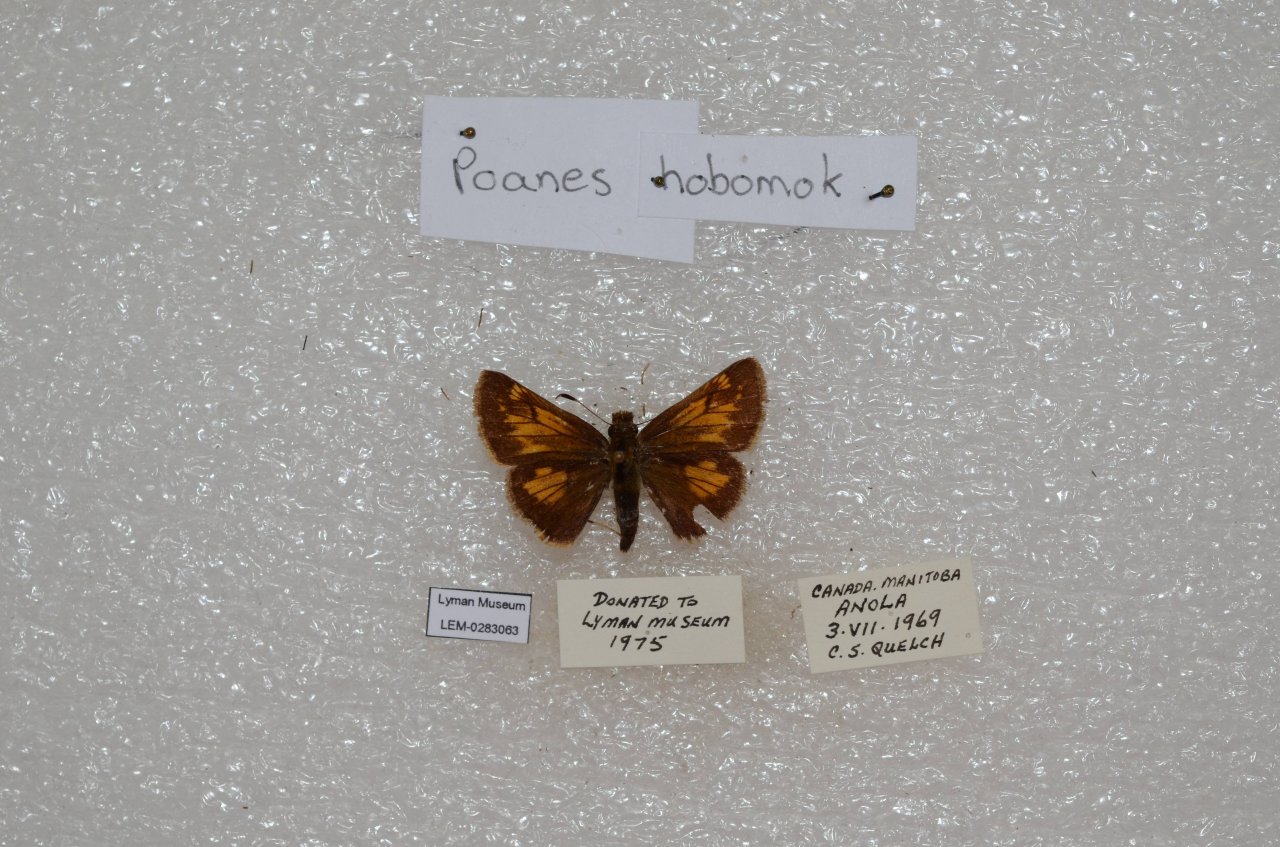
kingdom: Animalia
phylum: Arthropoda
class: Insecta
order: Lepidoptera
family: Hesperiidae
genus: Lon
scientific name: Lon hobomok
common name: Hobomok Skipper
